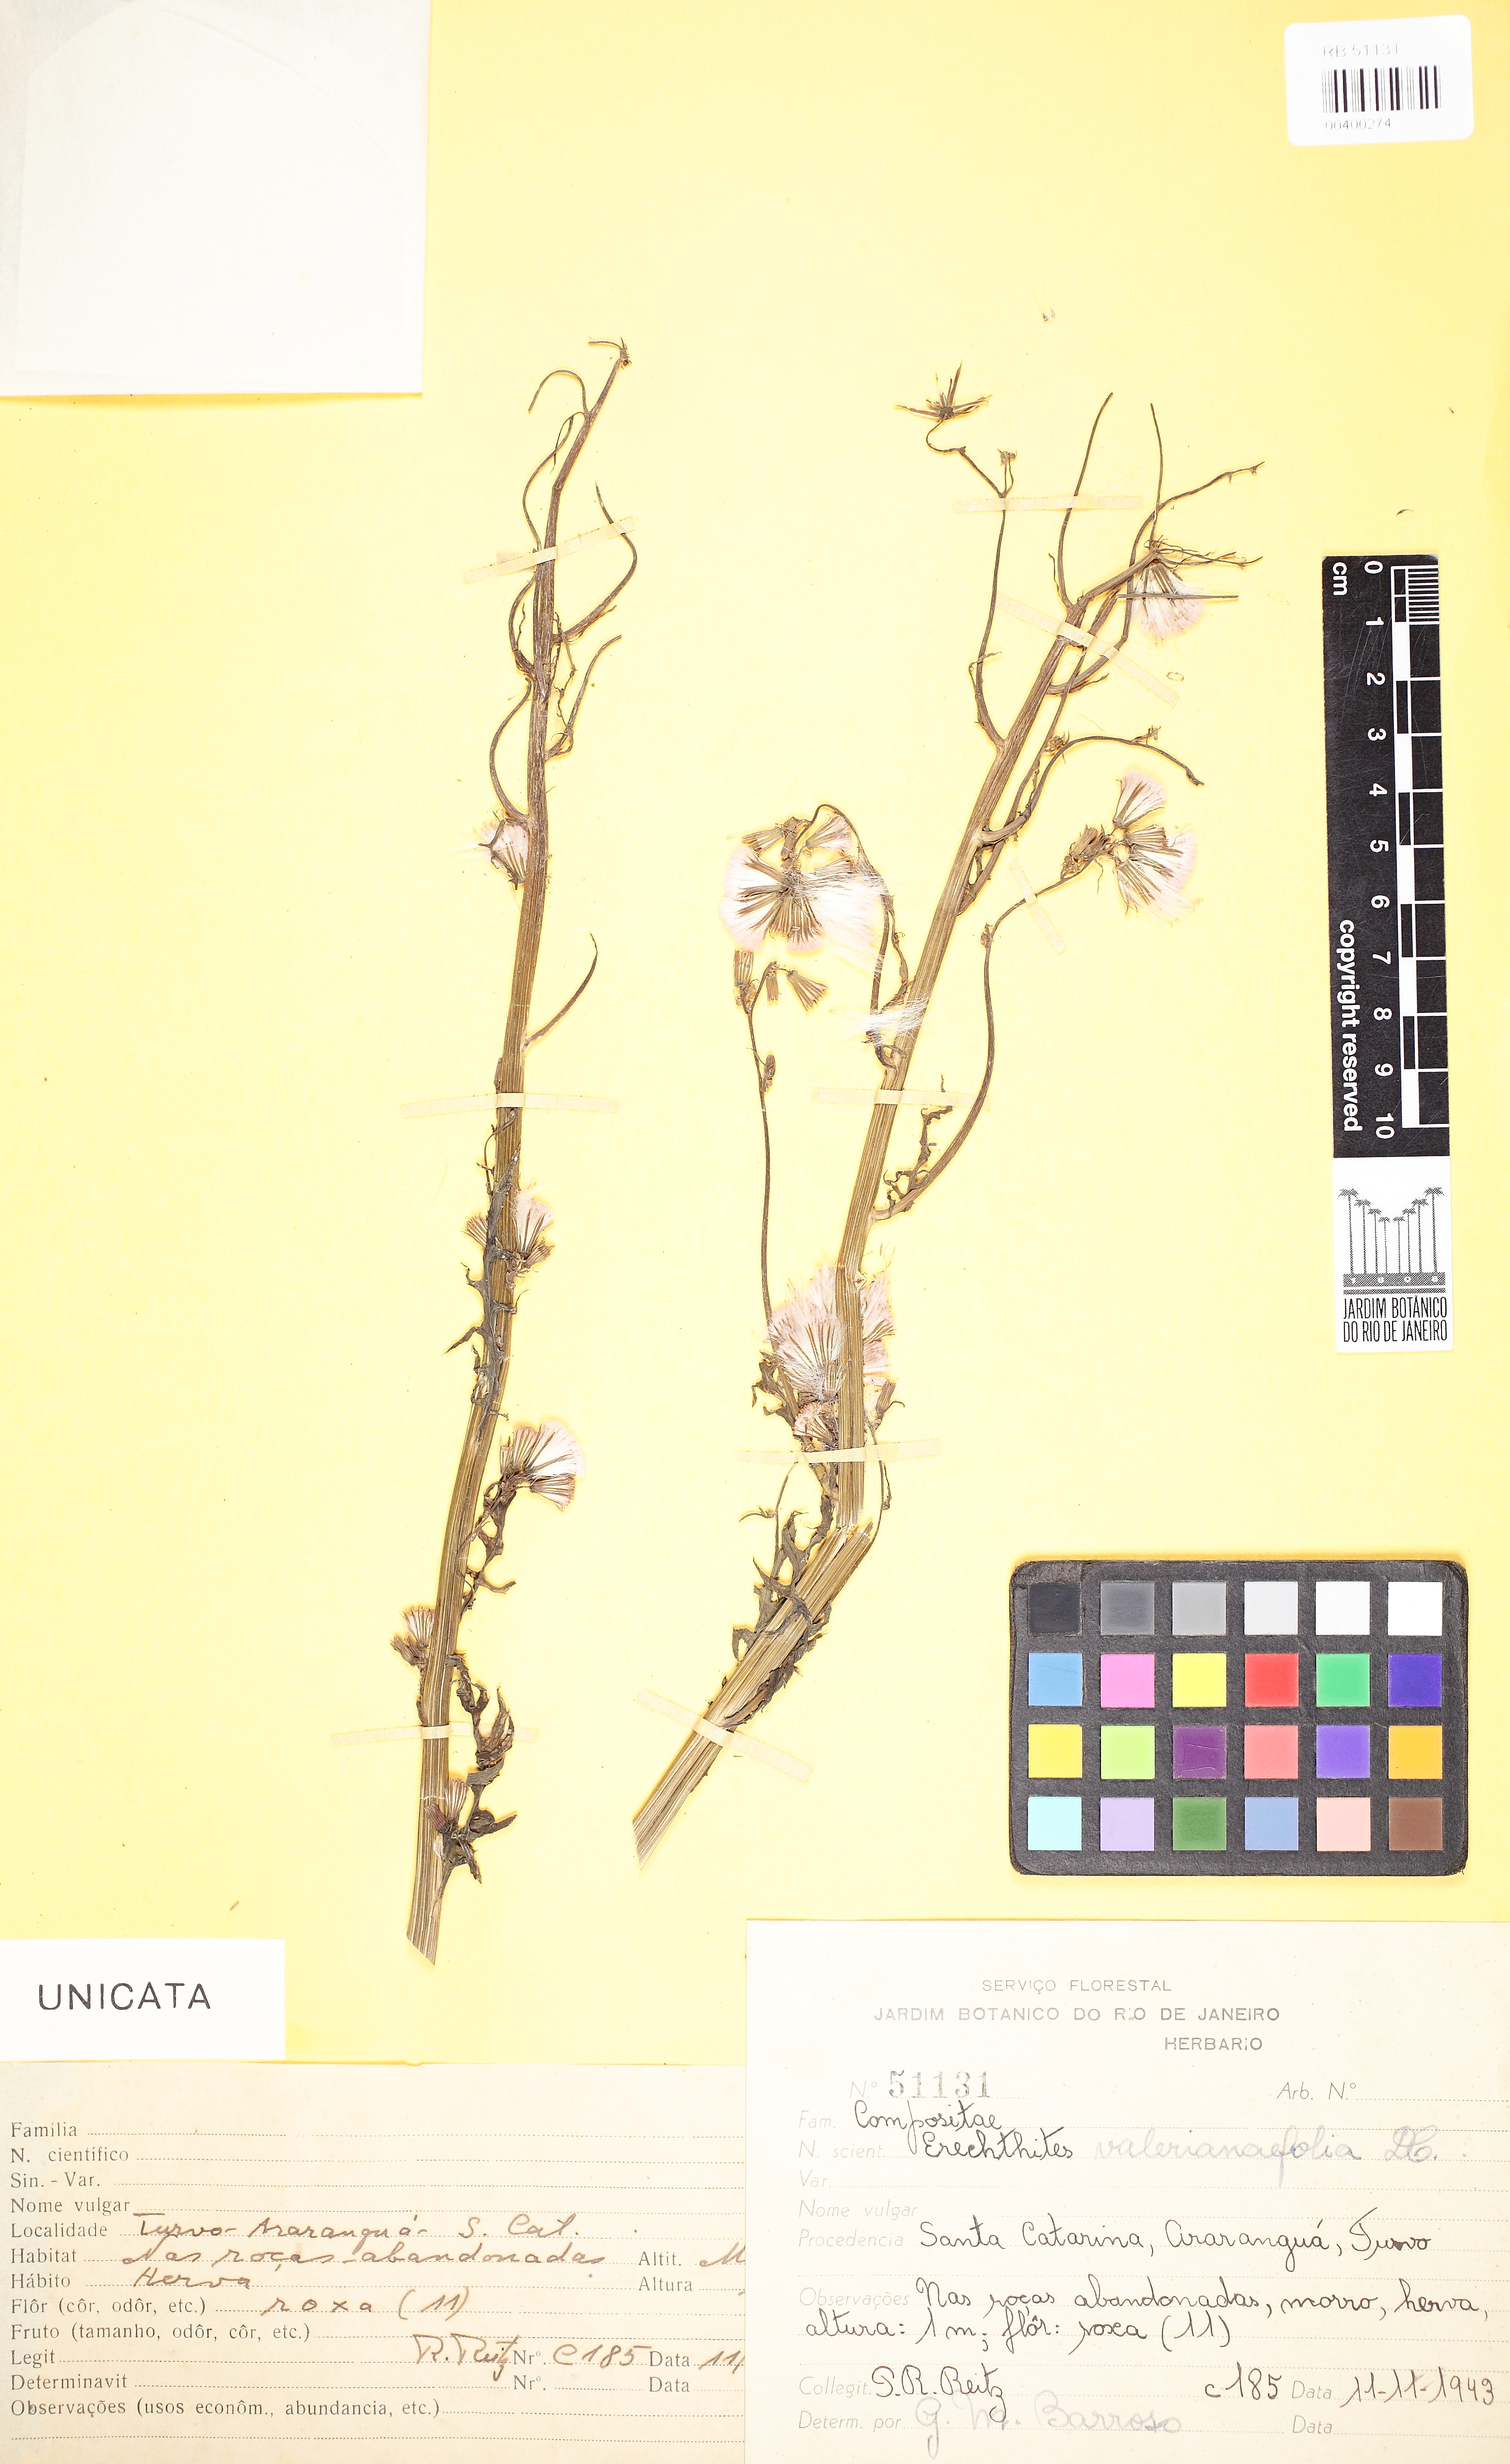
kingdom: Plantae
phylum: Tracheophyta
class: Magnoliopsida
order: Asterales
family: Asteraceae
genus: Erechtites
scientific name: Erechtites valerianifolius
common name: Tropical burnweed
